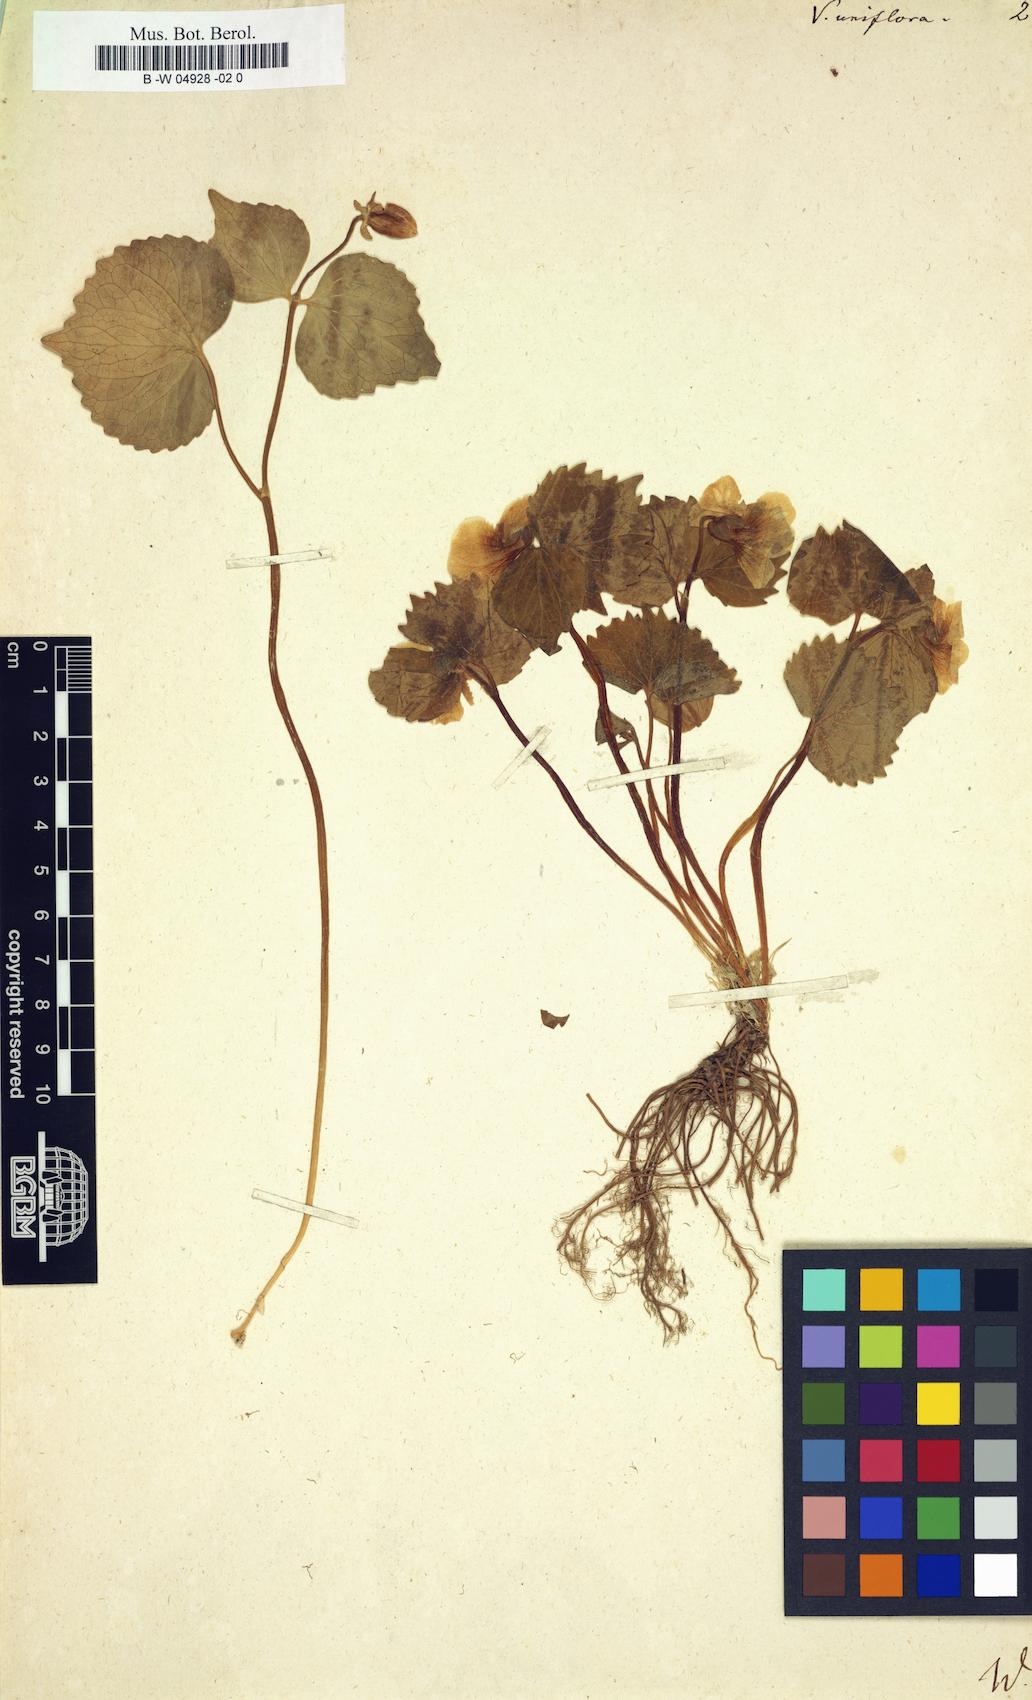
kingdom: Plantae
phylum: Tracheophyta
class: Magnoliopsida
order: Malpighiales
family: Violaceae
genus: Viola
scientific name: Viola uniflora
